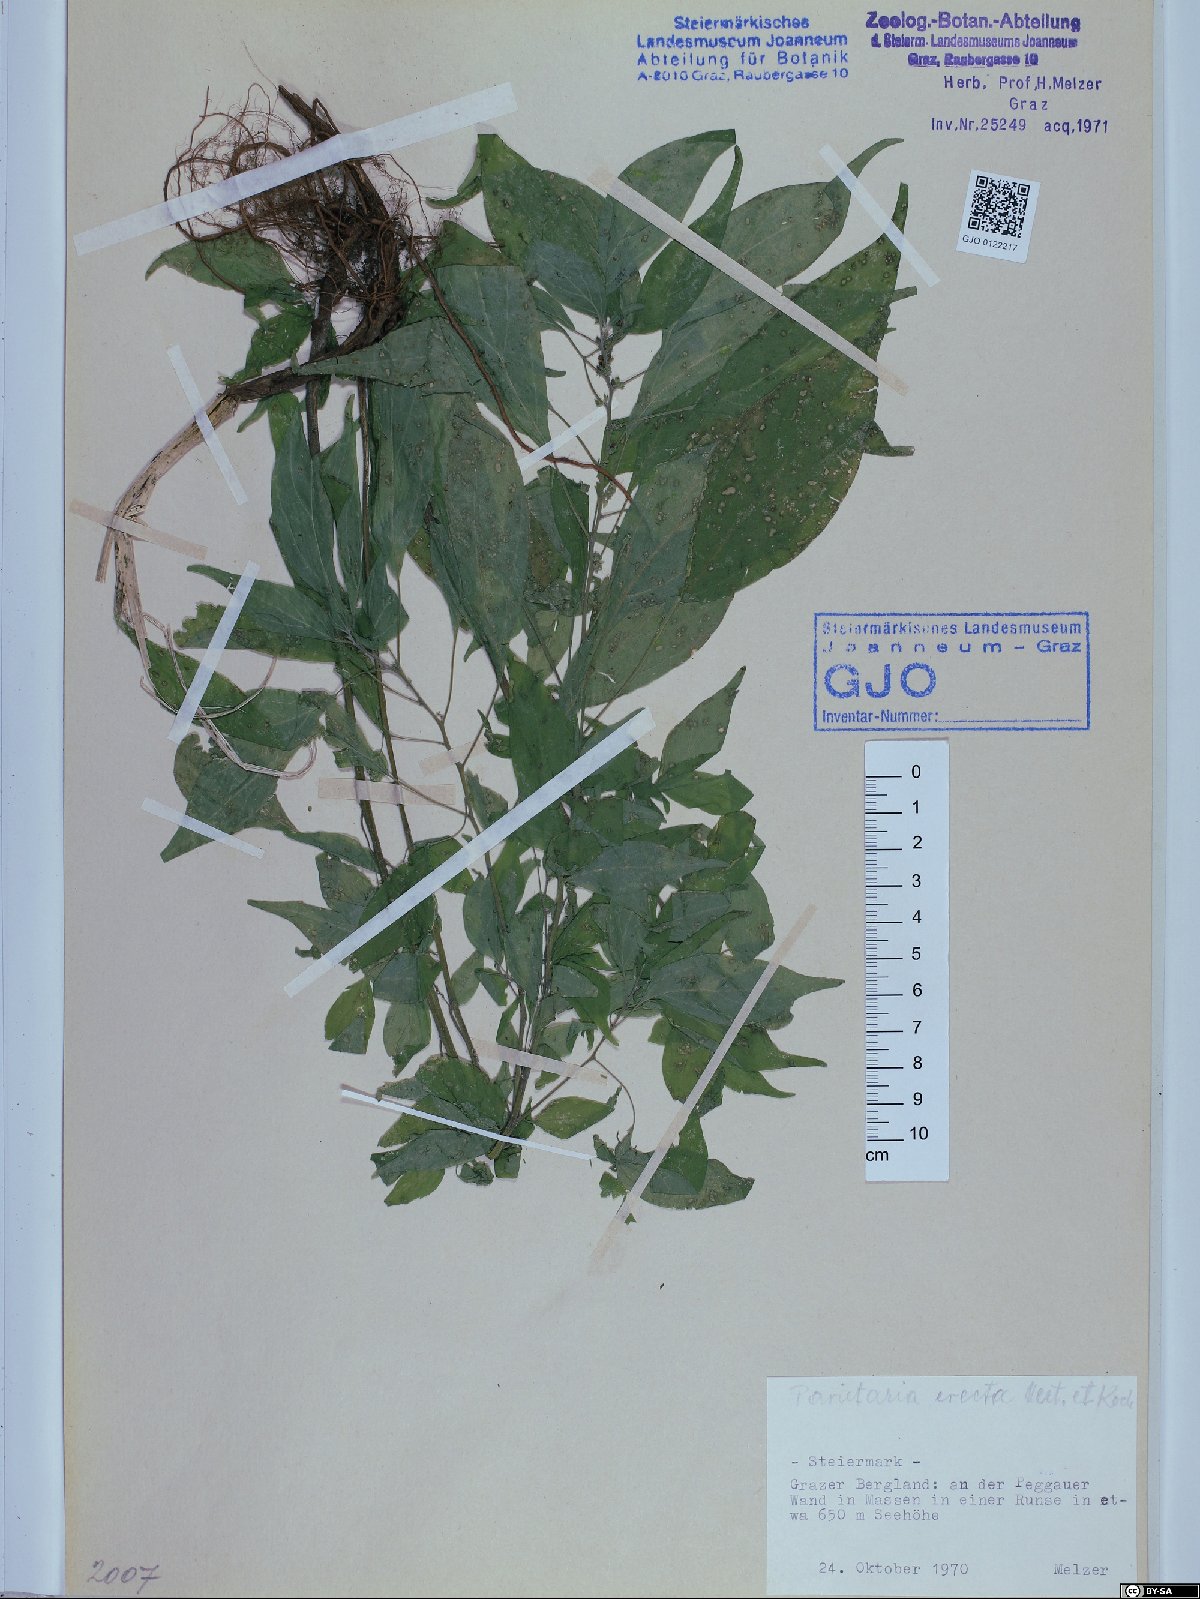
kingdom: Plantae
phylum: Tracheophyta
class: Magnoliopsida
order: Rosales
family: Urticaceae
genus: Parietaria
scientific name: Parietaria officinalis
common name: Eastern pellitory-of-the-wall
